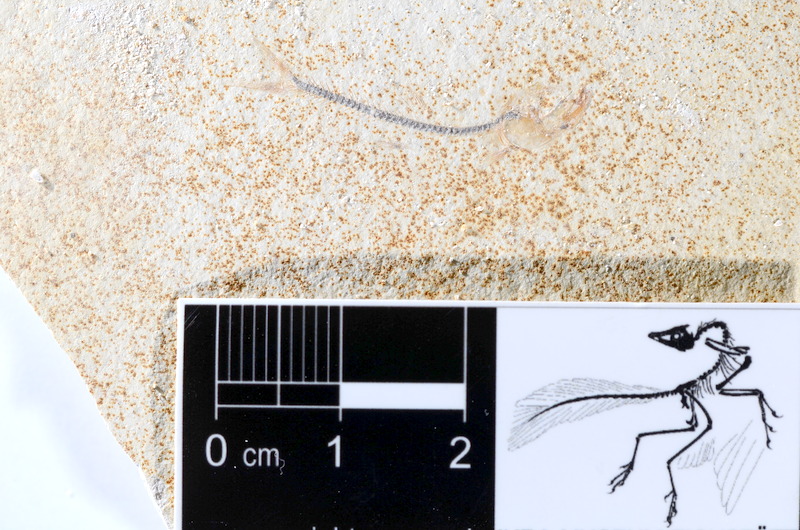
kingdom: Animalia
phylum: Chordata
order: Salmoniformes
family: Orthogonikleithridae
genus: Orthogonikleithrus
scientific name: Orthogonikleithrus hoelli
